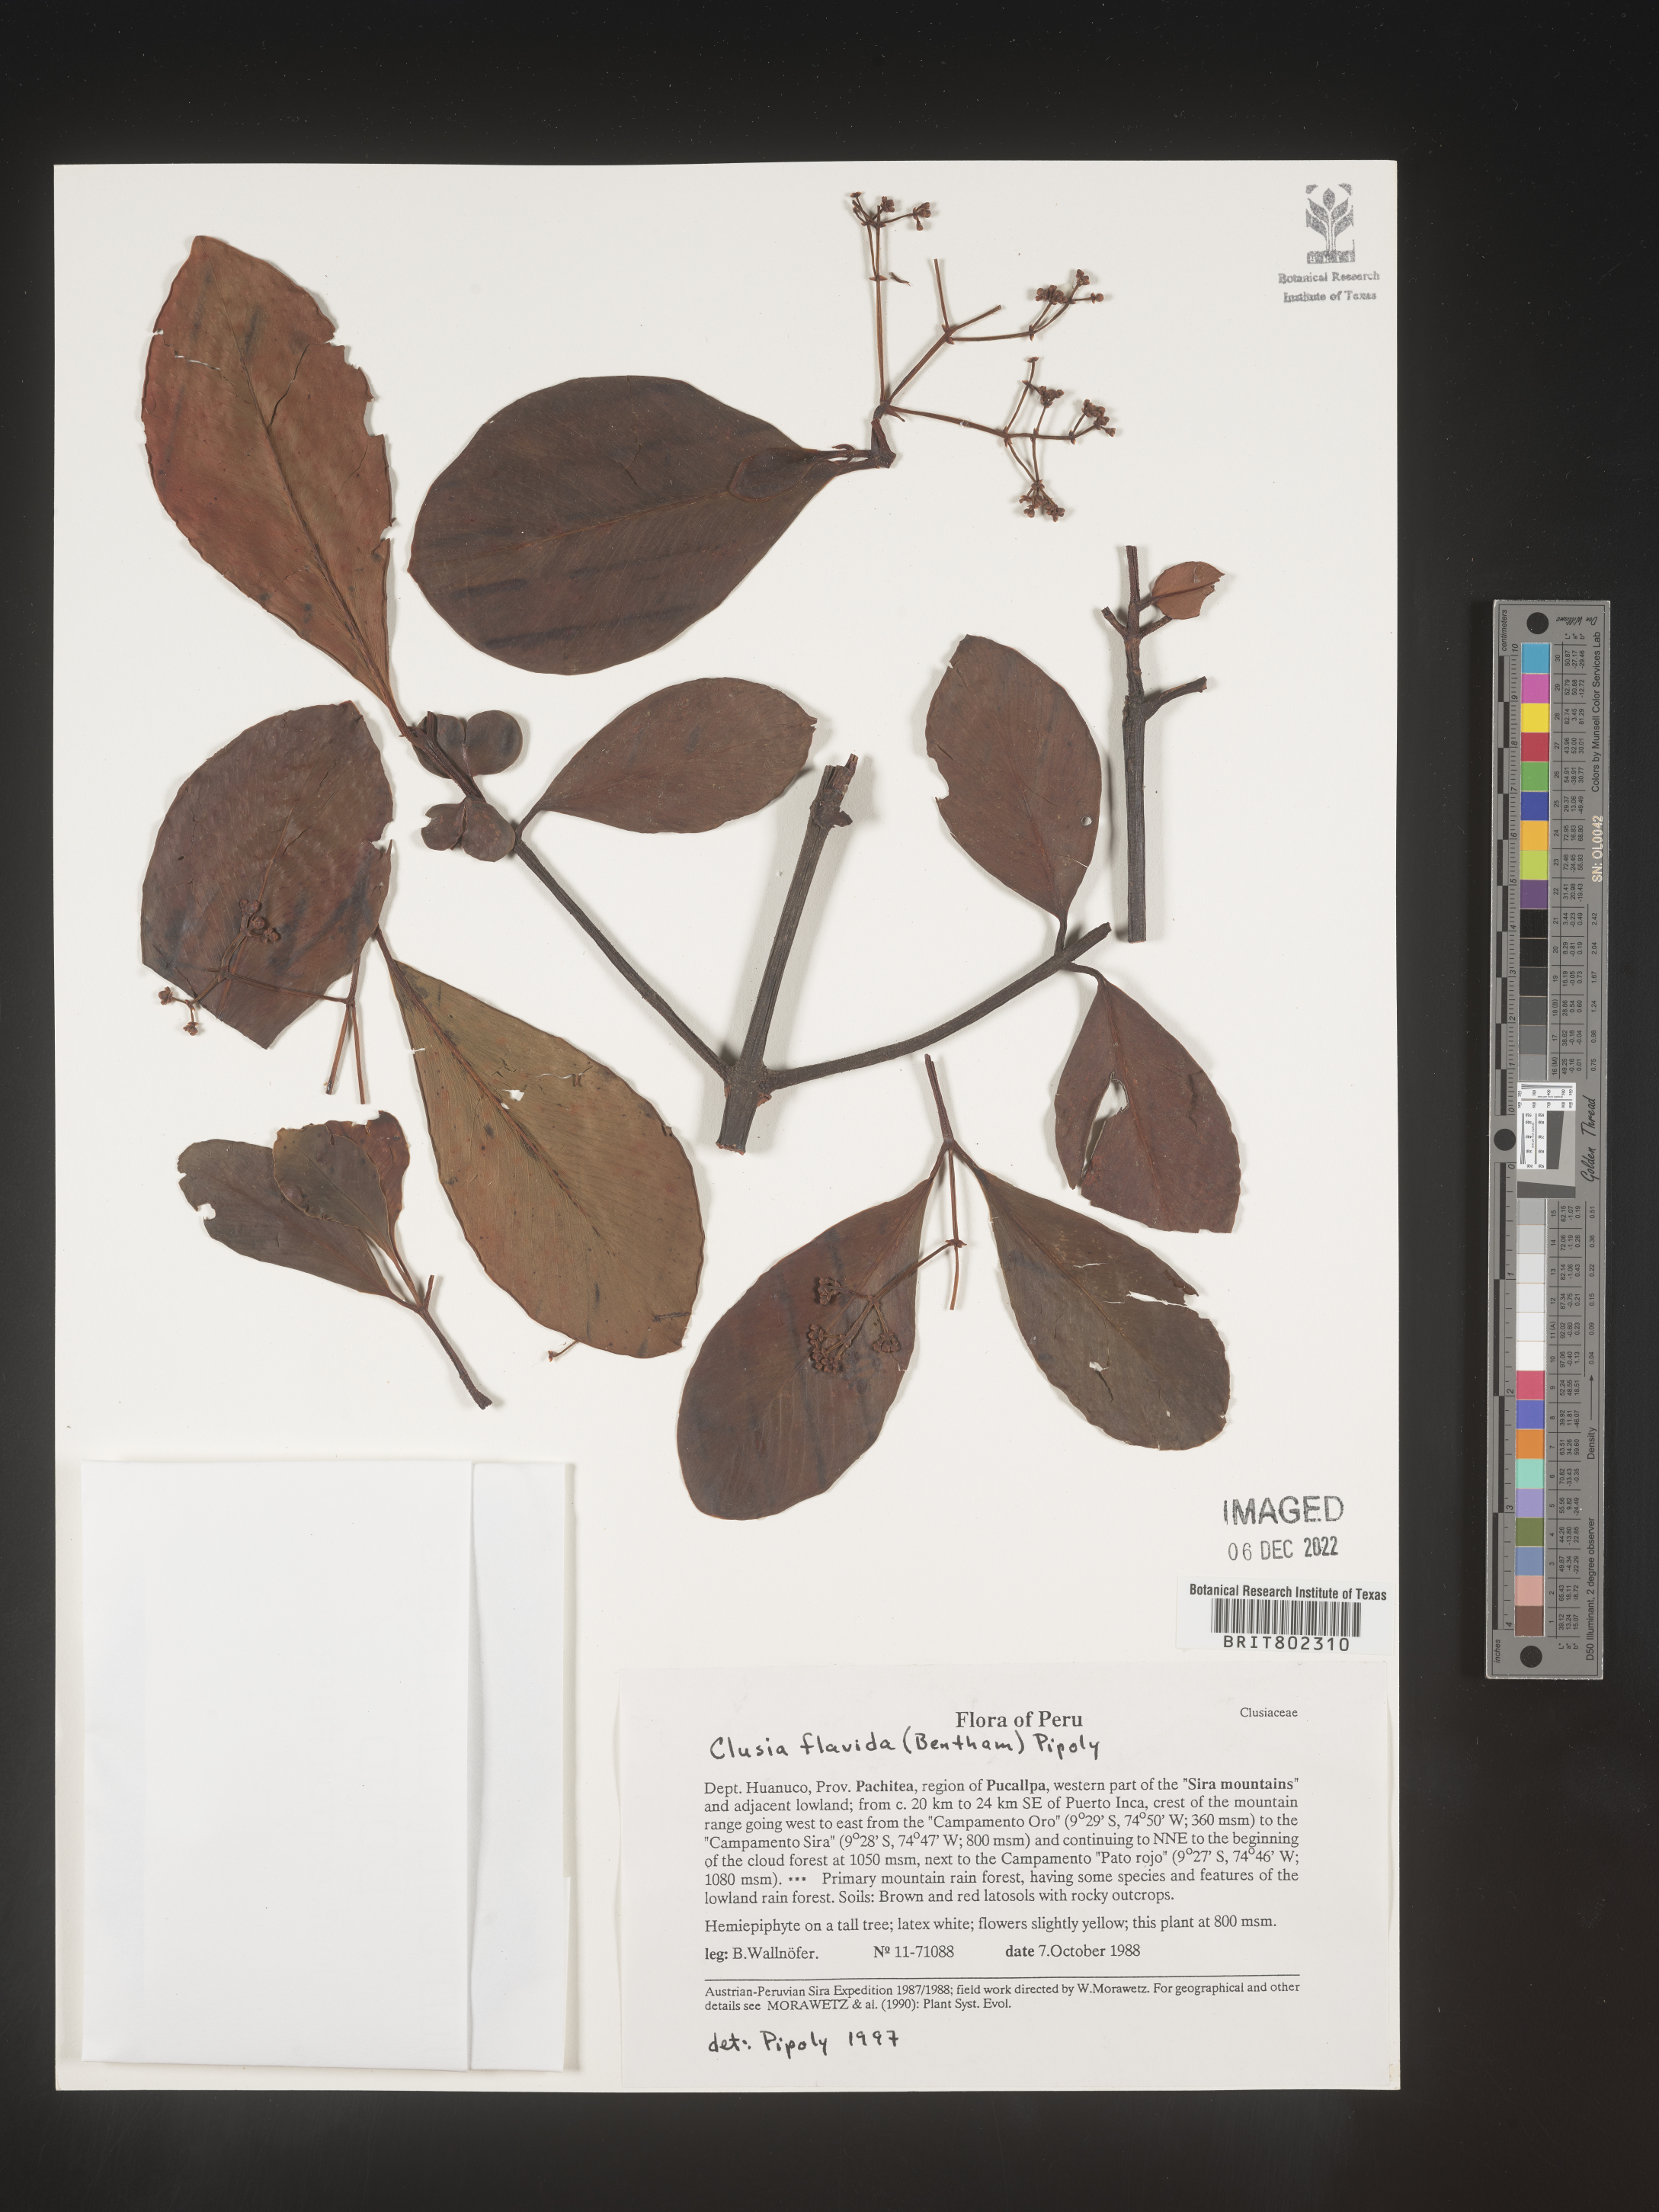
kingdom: Plantae
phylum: Tracheophyta
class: Magnoliopsida
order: Malpighiales
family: Clusiaceae
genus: Clusia
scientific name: Clusia flavida
